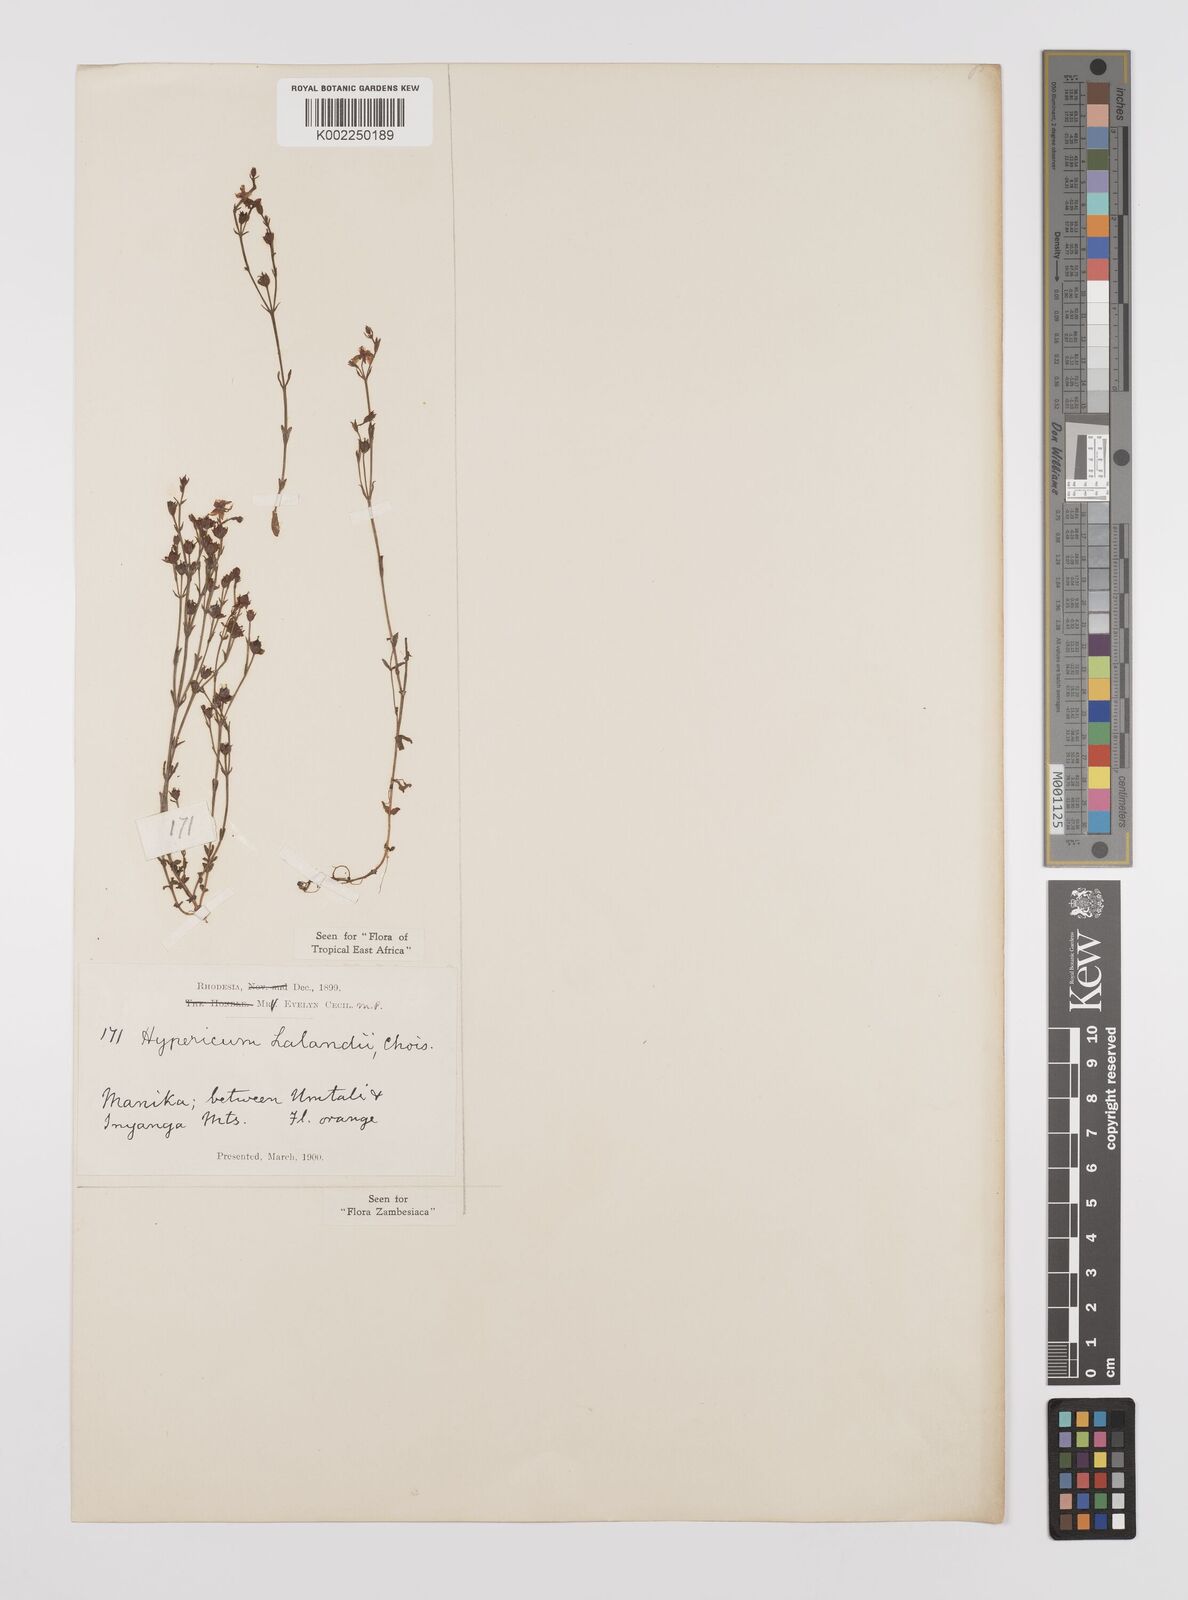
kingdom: Plantae
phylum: Tracheophyta
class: Magnoliopsida
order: Malpighiales
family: Hypericaceae
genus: Hypericum
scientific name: Hypericum lalandii
